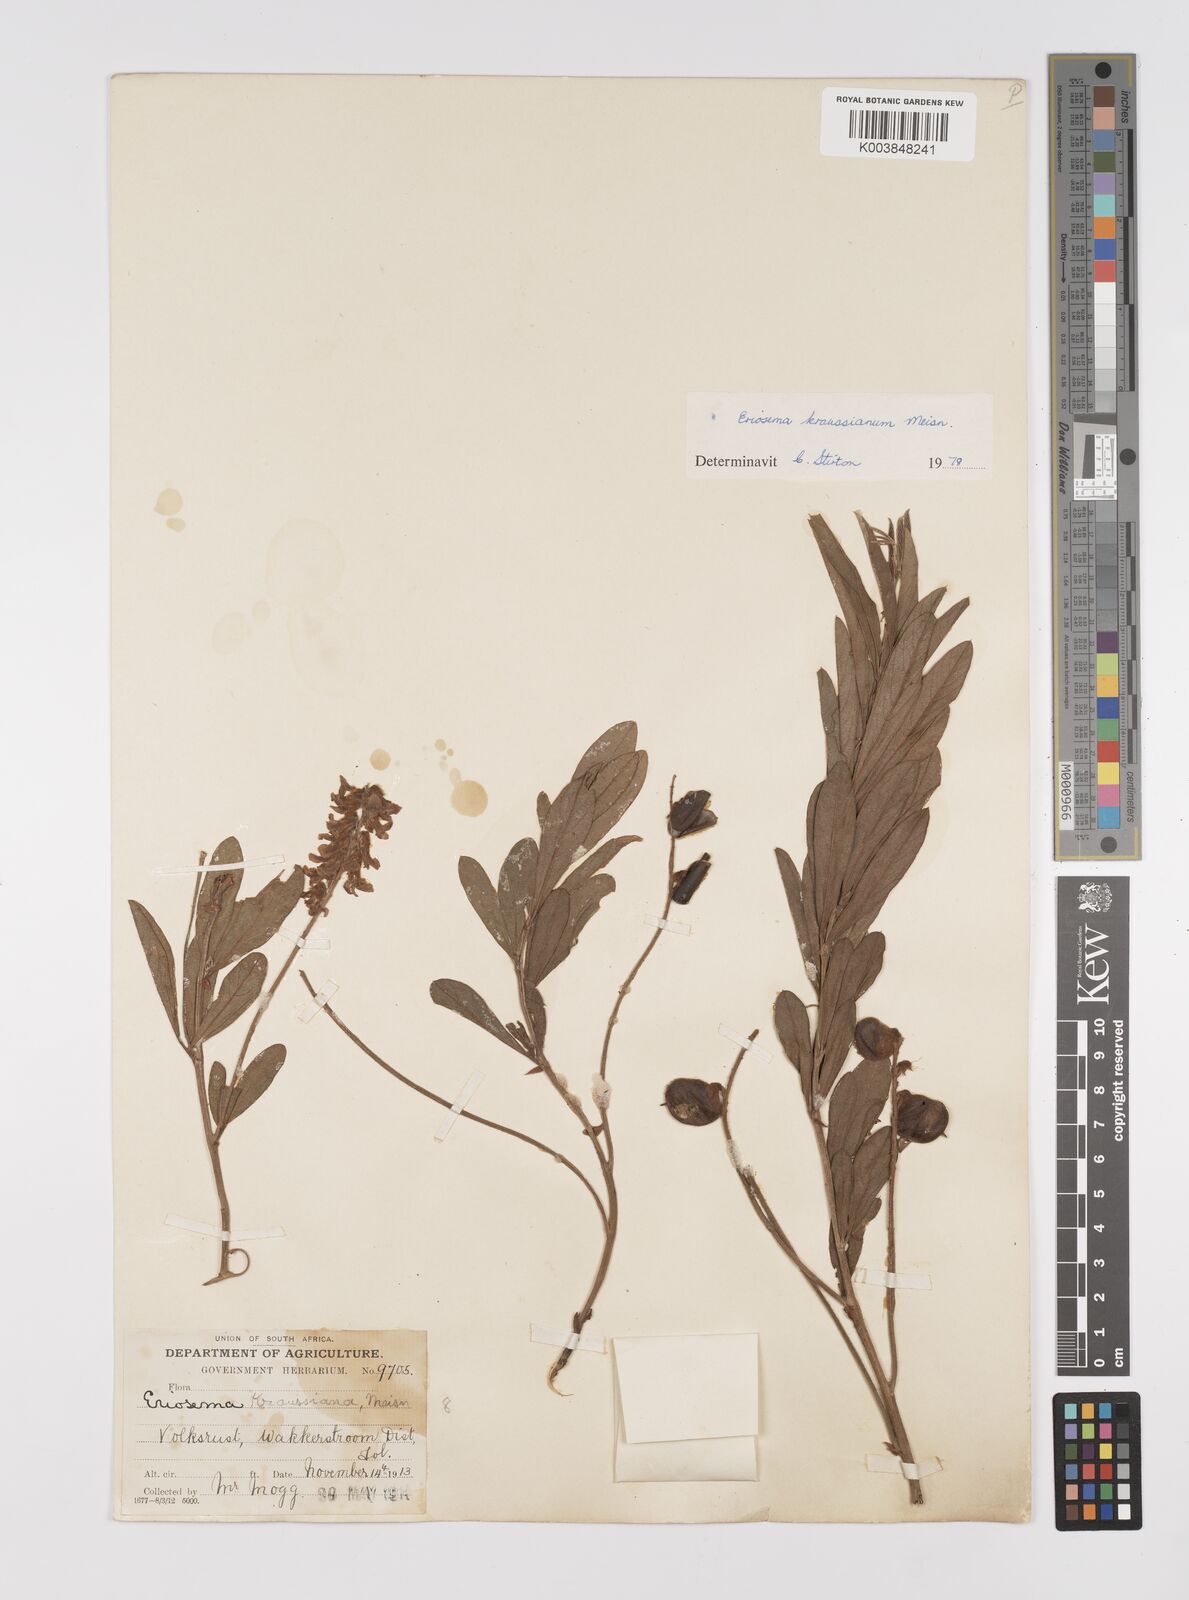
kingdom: Plantae
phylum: Tracheophyta
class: Magnoliopsida
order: Fabales
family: Fabaceae
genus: Eriosema
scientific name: Eriosema kraussianum
